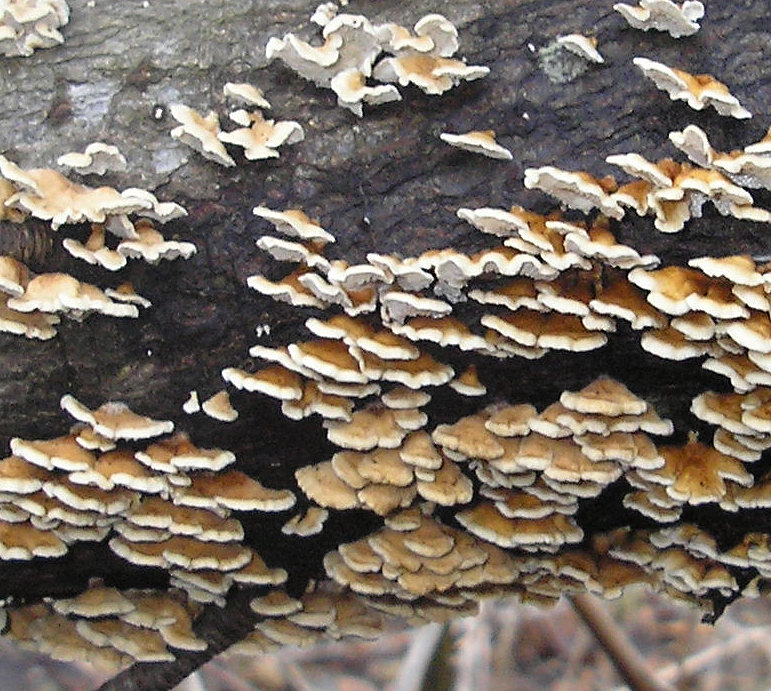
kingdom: Fungi
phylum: Basidiomycota
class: Agaricomycetes
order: Amylocorticiales
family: Amylocorticiaceae
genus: Plicaturopsis
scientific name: Plicaturopsis crispa
